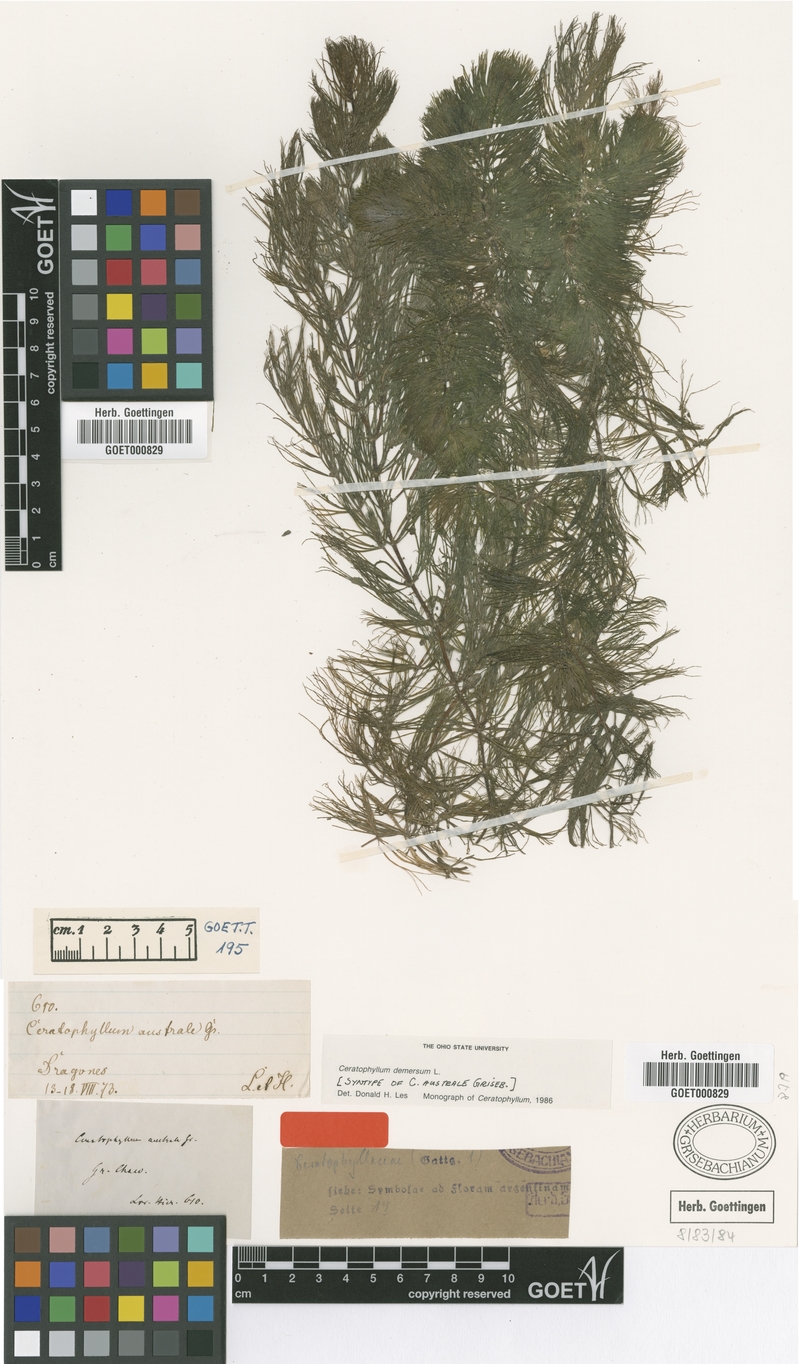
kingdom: Plantae
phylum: Tracheophyta
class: Magnoliopsida
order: Ceratophyllales
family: Ceratophyllaceae
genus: Ceratophyllum
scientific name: Ceratophyllum demersum
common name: Rigid hornwort
